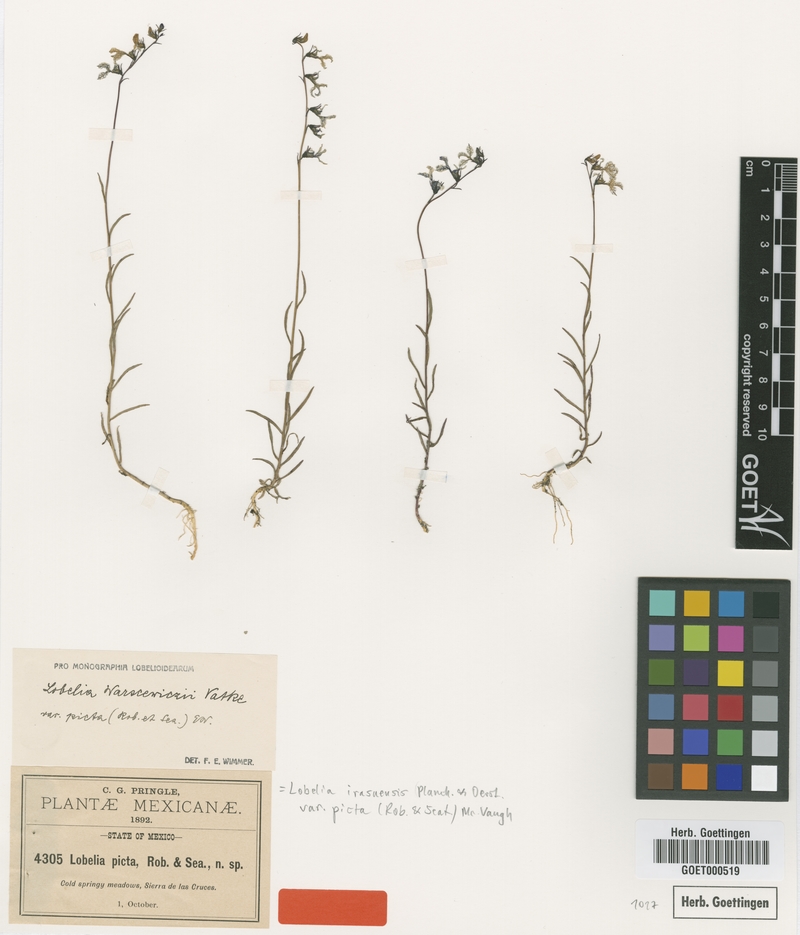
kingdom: Plantae
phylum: Tracheophyta
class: Magnoliopsida
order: Asterales
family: Campanulaceae
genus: Lobelia
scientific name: Lobelia irasuensis
